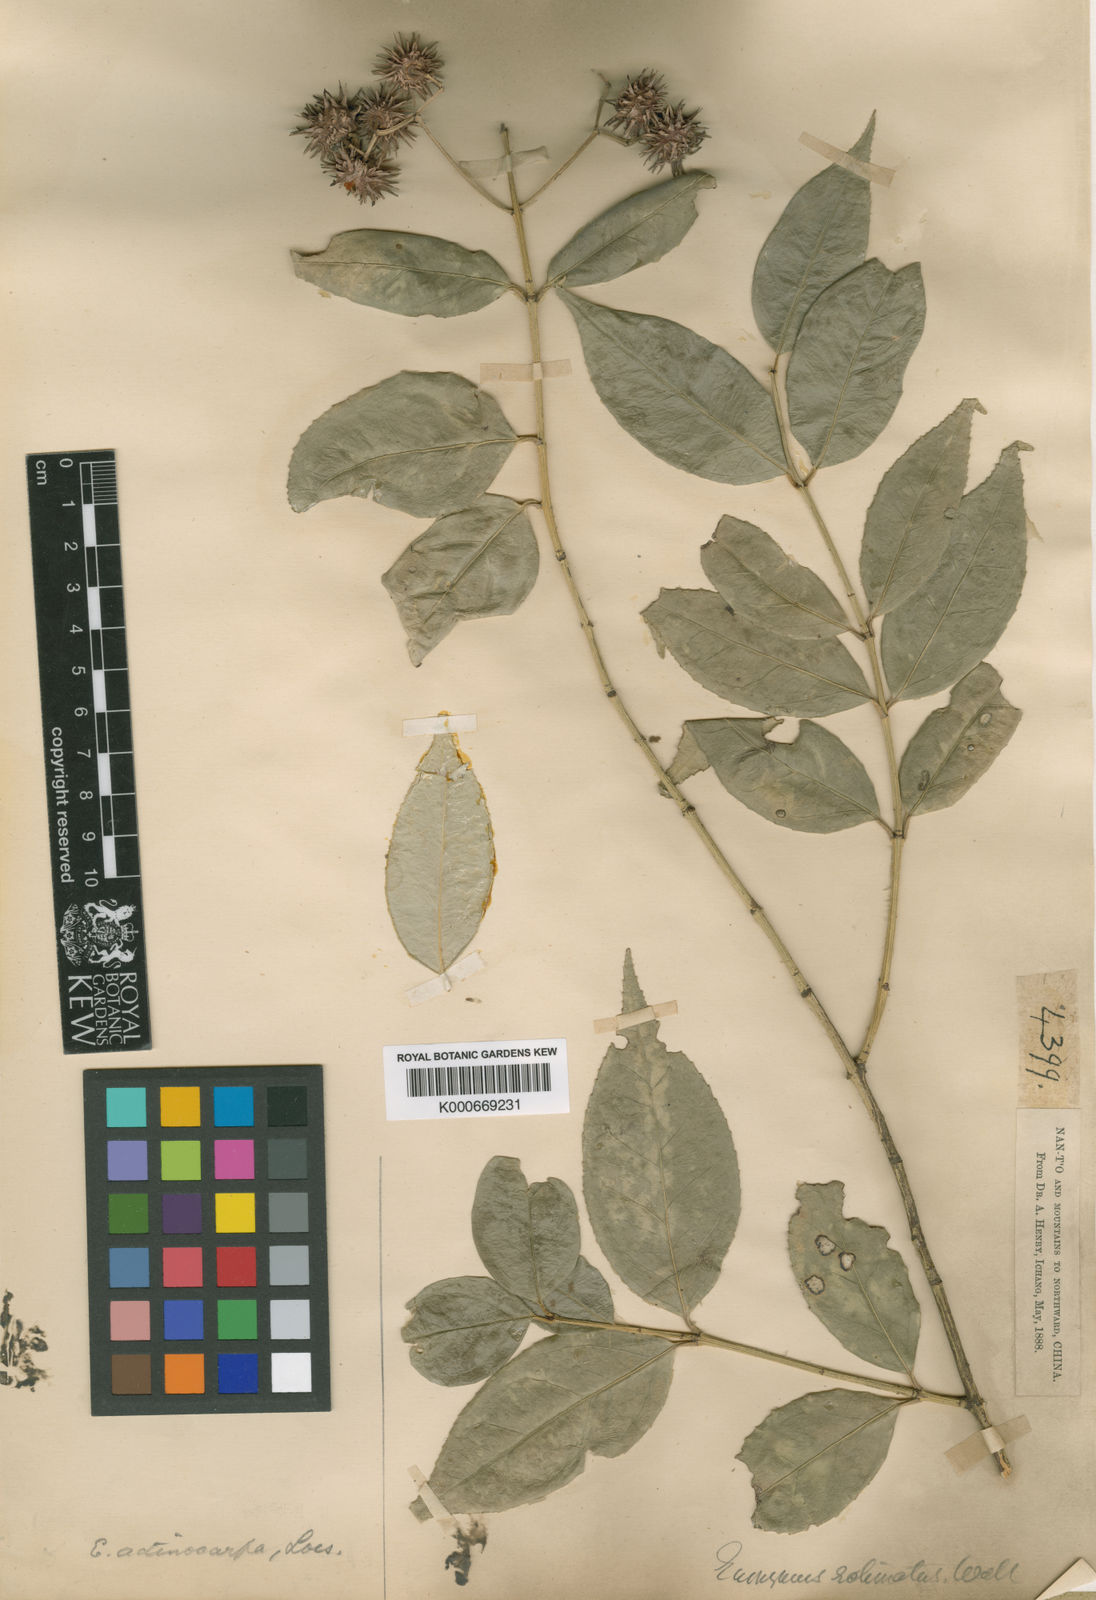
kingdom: Plantae
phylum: Tracheophyta
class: Magnoliopsida
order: Celastrales
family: Celastraceae
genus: Euonymus
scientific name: Euonymus actinocarpus
